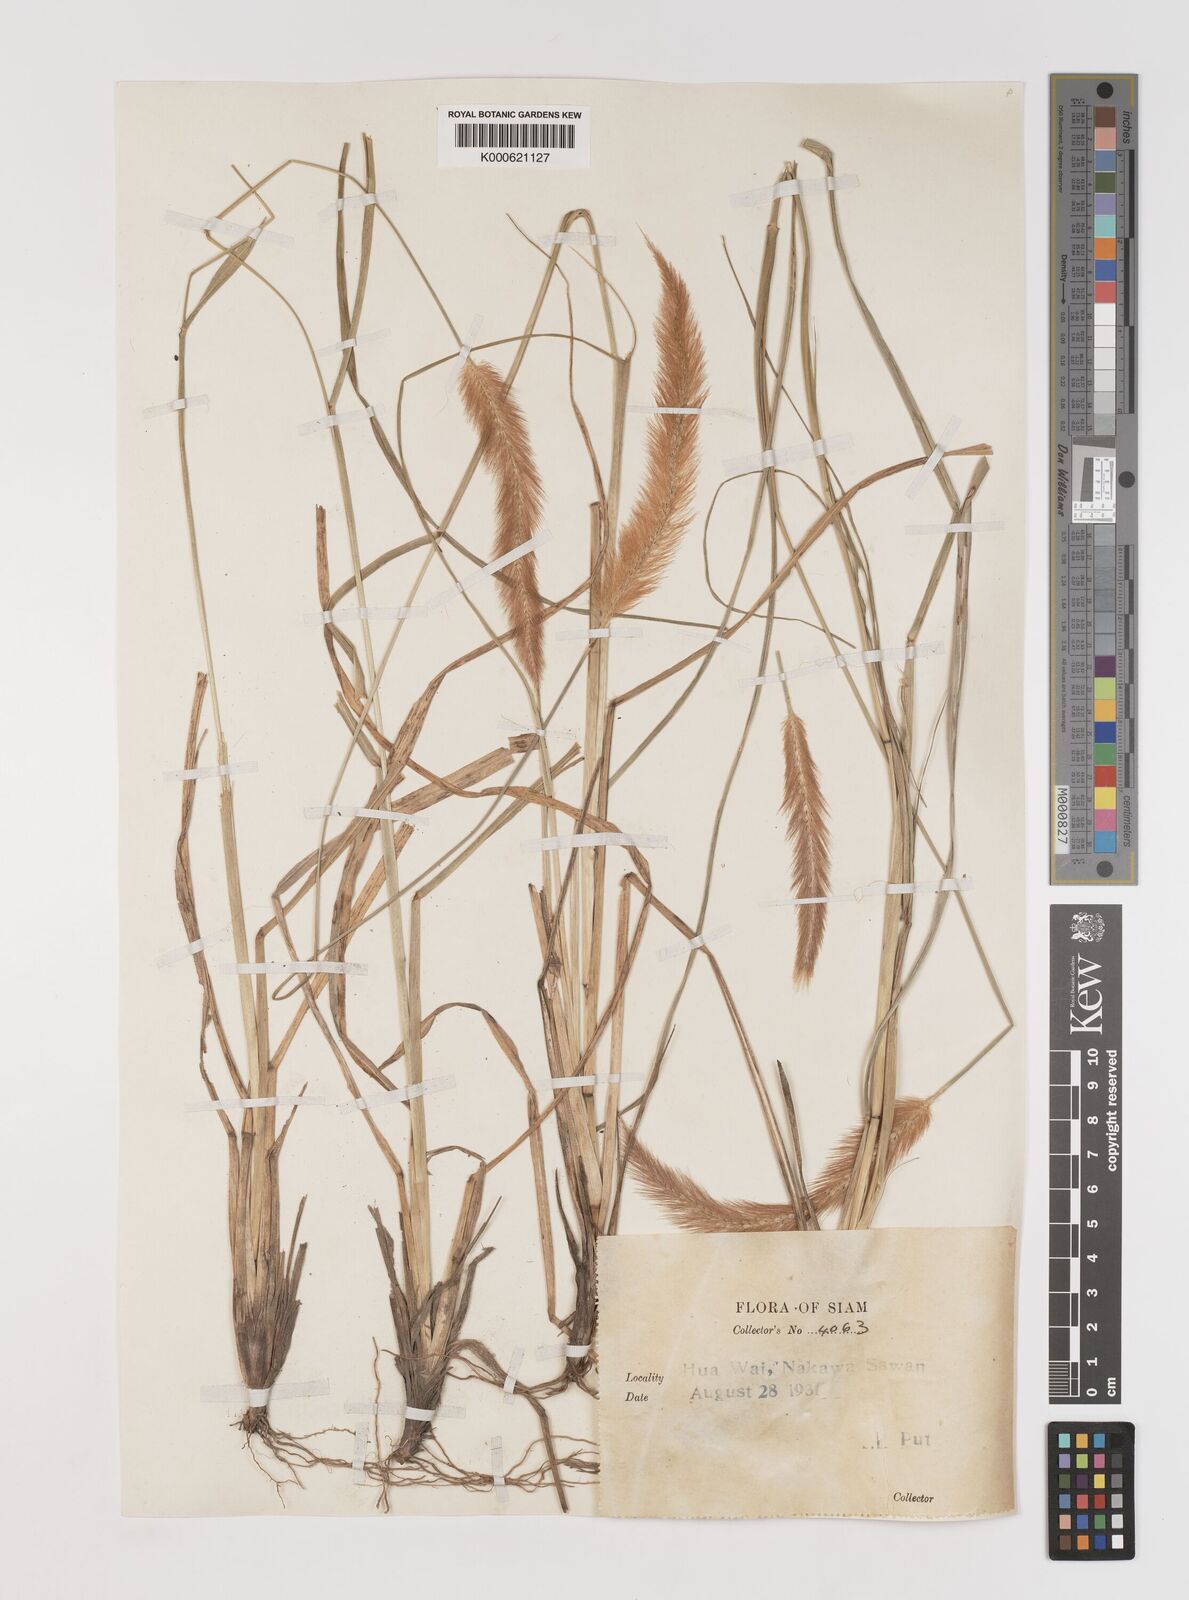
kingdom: Plantae
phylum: Tracheophyta
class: Liliopsida
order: Poales
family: Poaceae
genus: Setaria
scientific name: Setaria italica
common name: Foxtail bristle-grass
